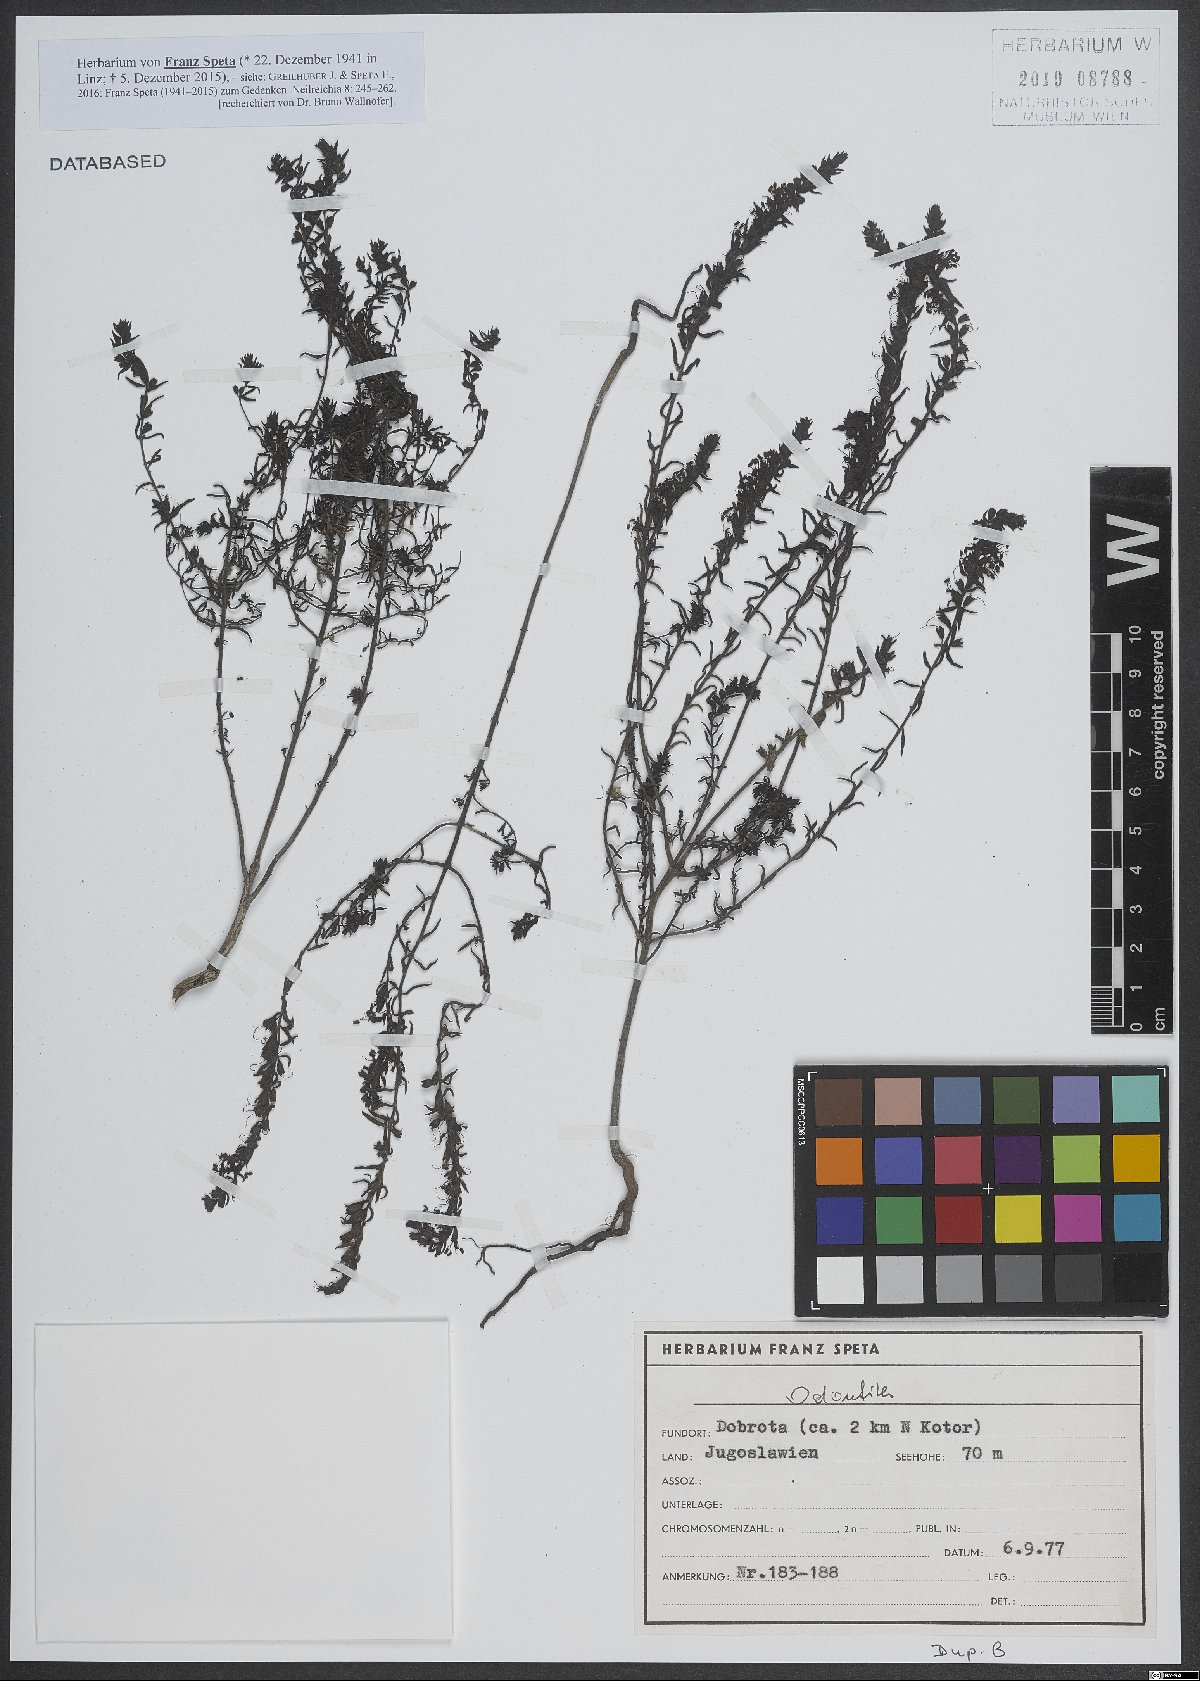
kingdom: Plantae
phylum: Tracheophyta
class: Magnoliopsida
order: Lamiales
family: Orobanchaceae
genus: Odontites
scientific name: Odontites
